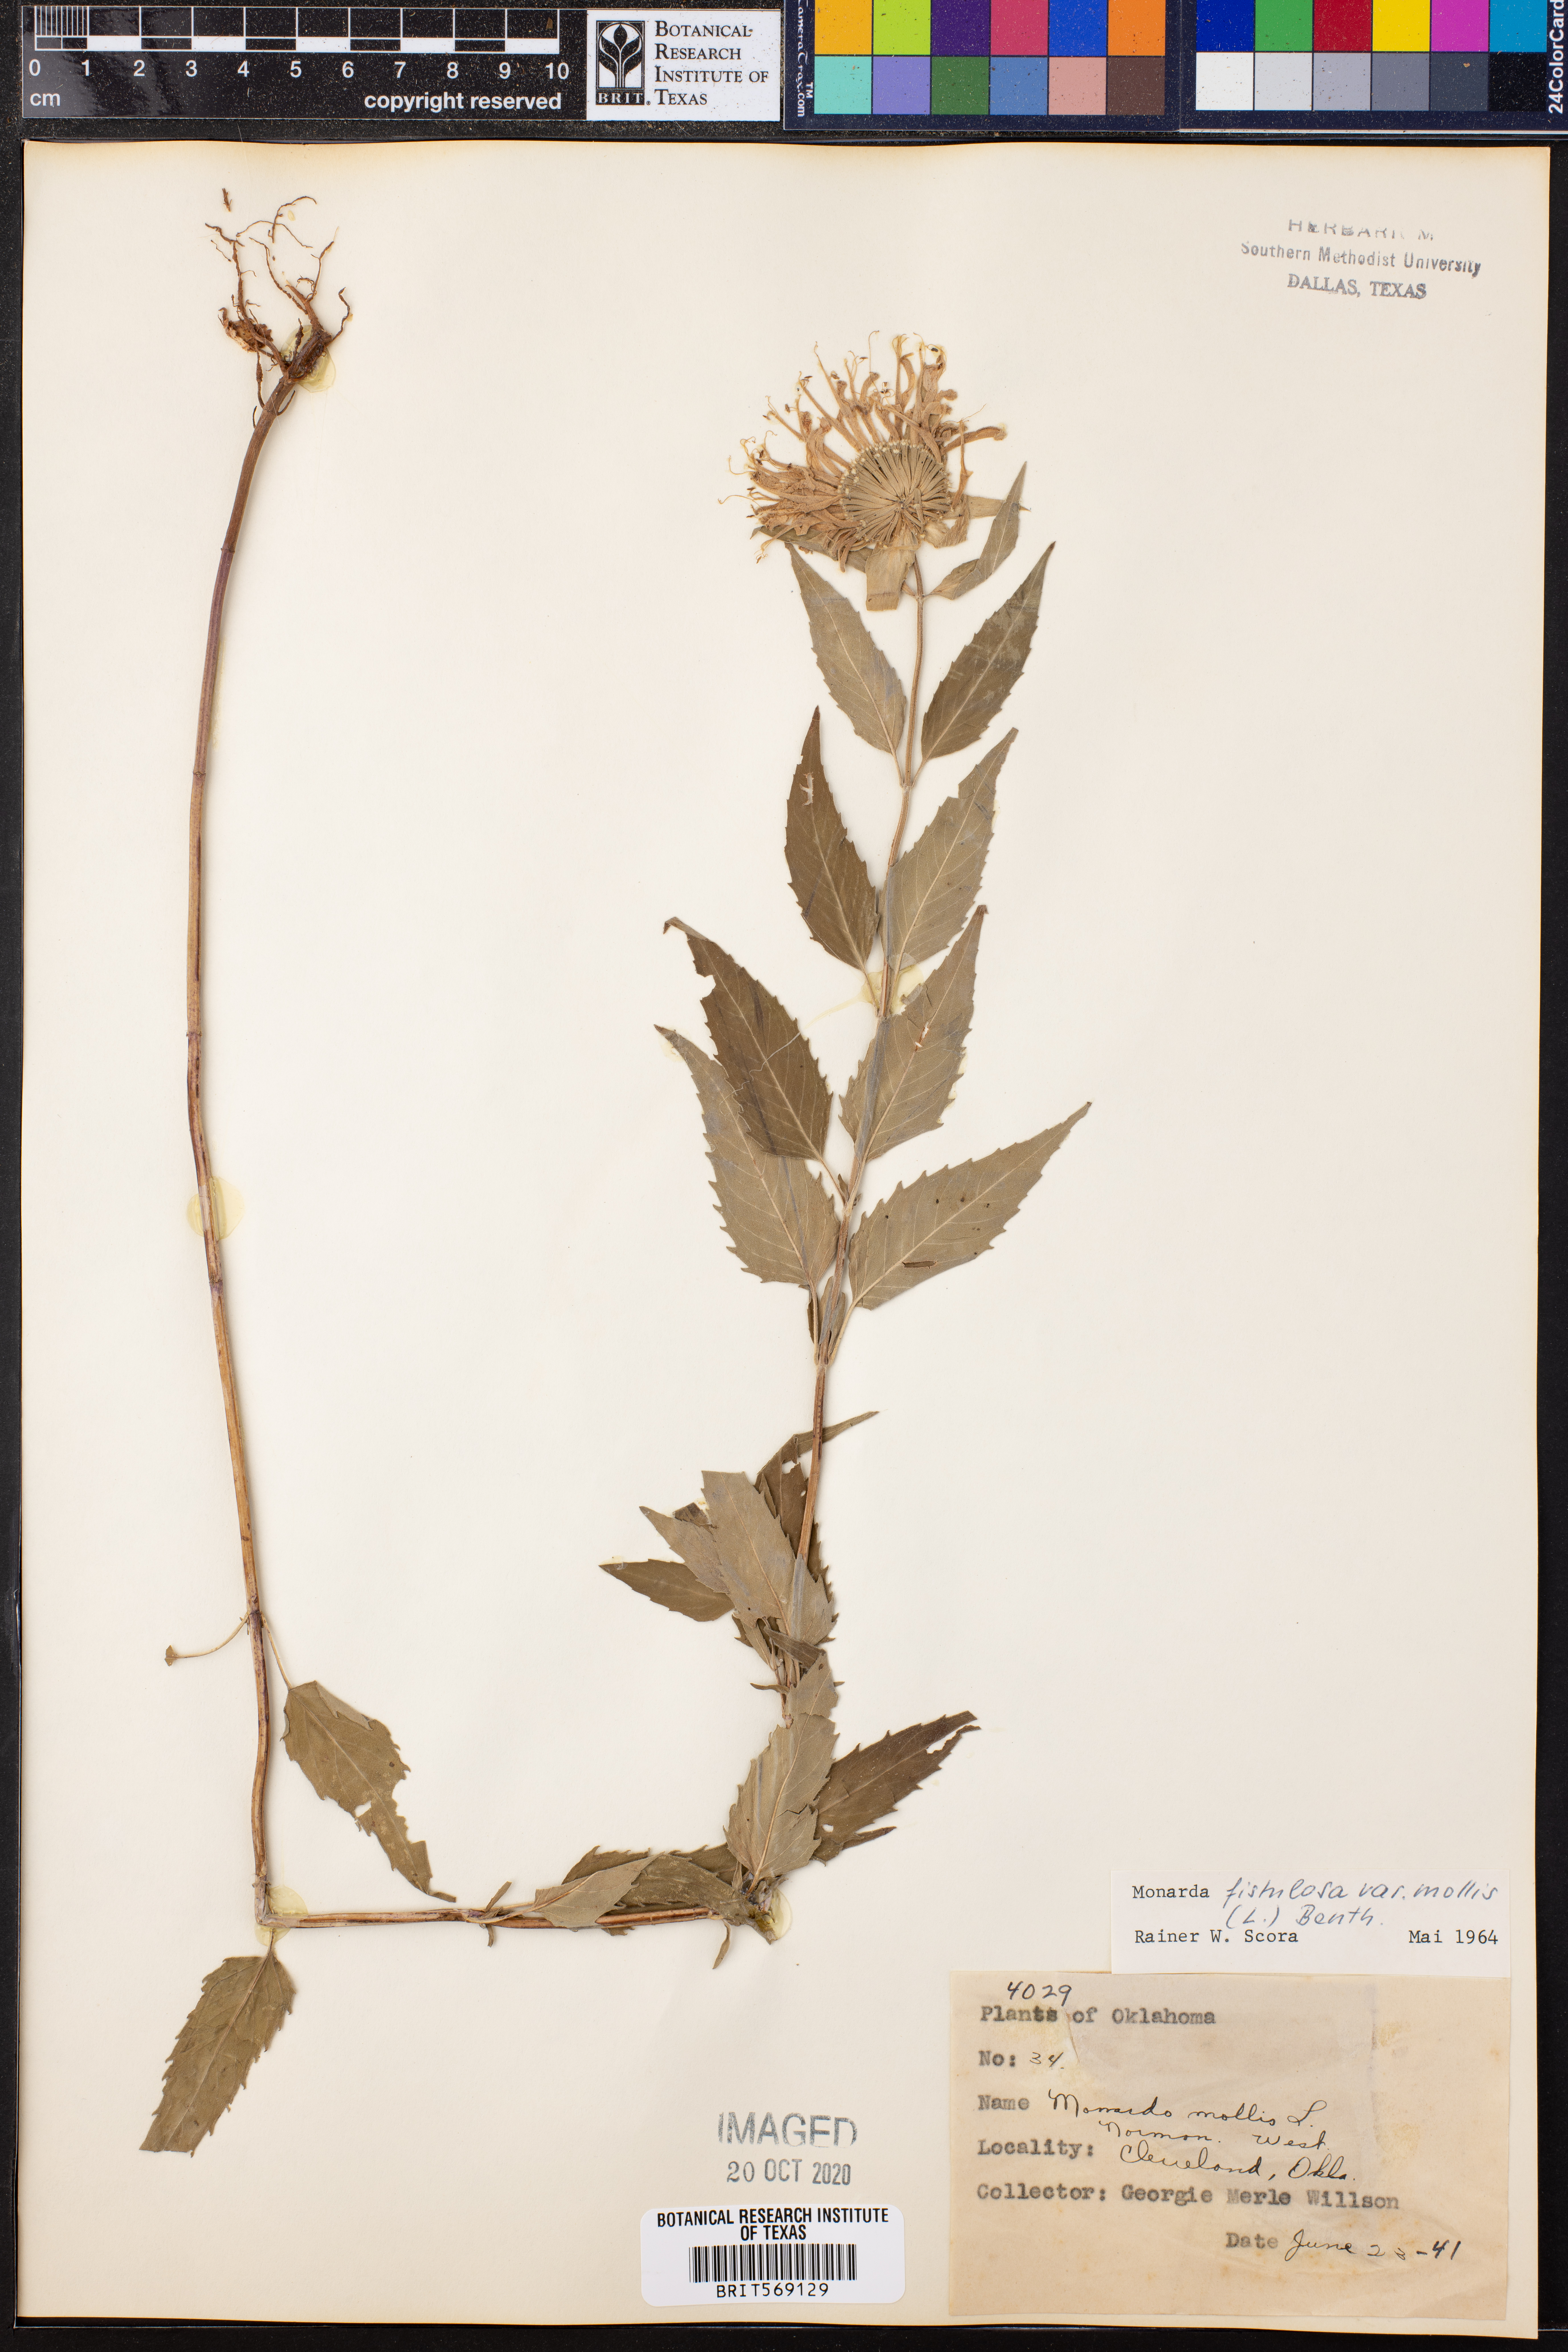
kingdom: Plantae
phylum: Tracheophyta
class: Magnoliopsida
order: Lamiales
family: Lamiaceae
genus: Monarda
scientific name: Monarda fistulosa
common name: Purple beebalm
